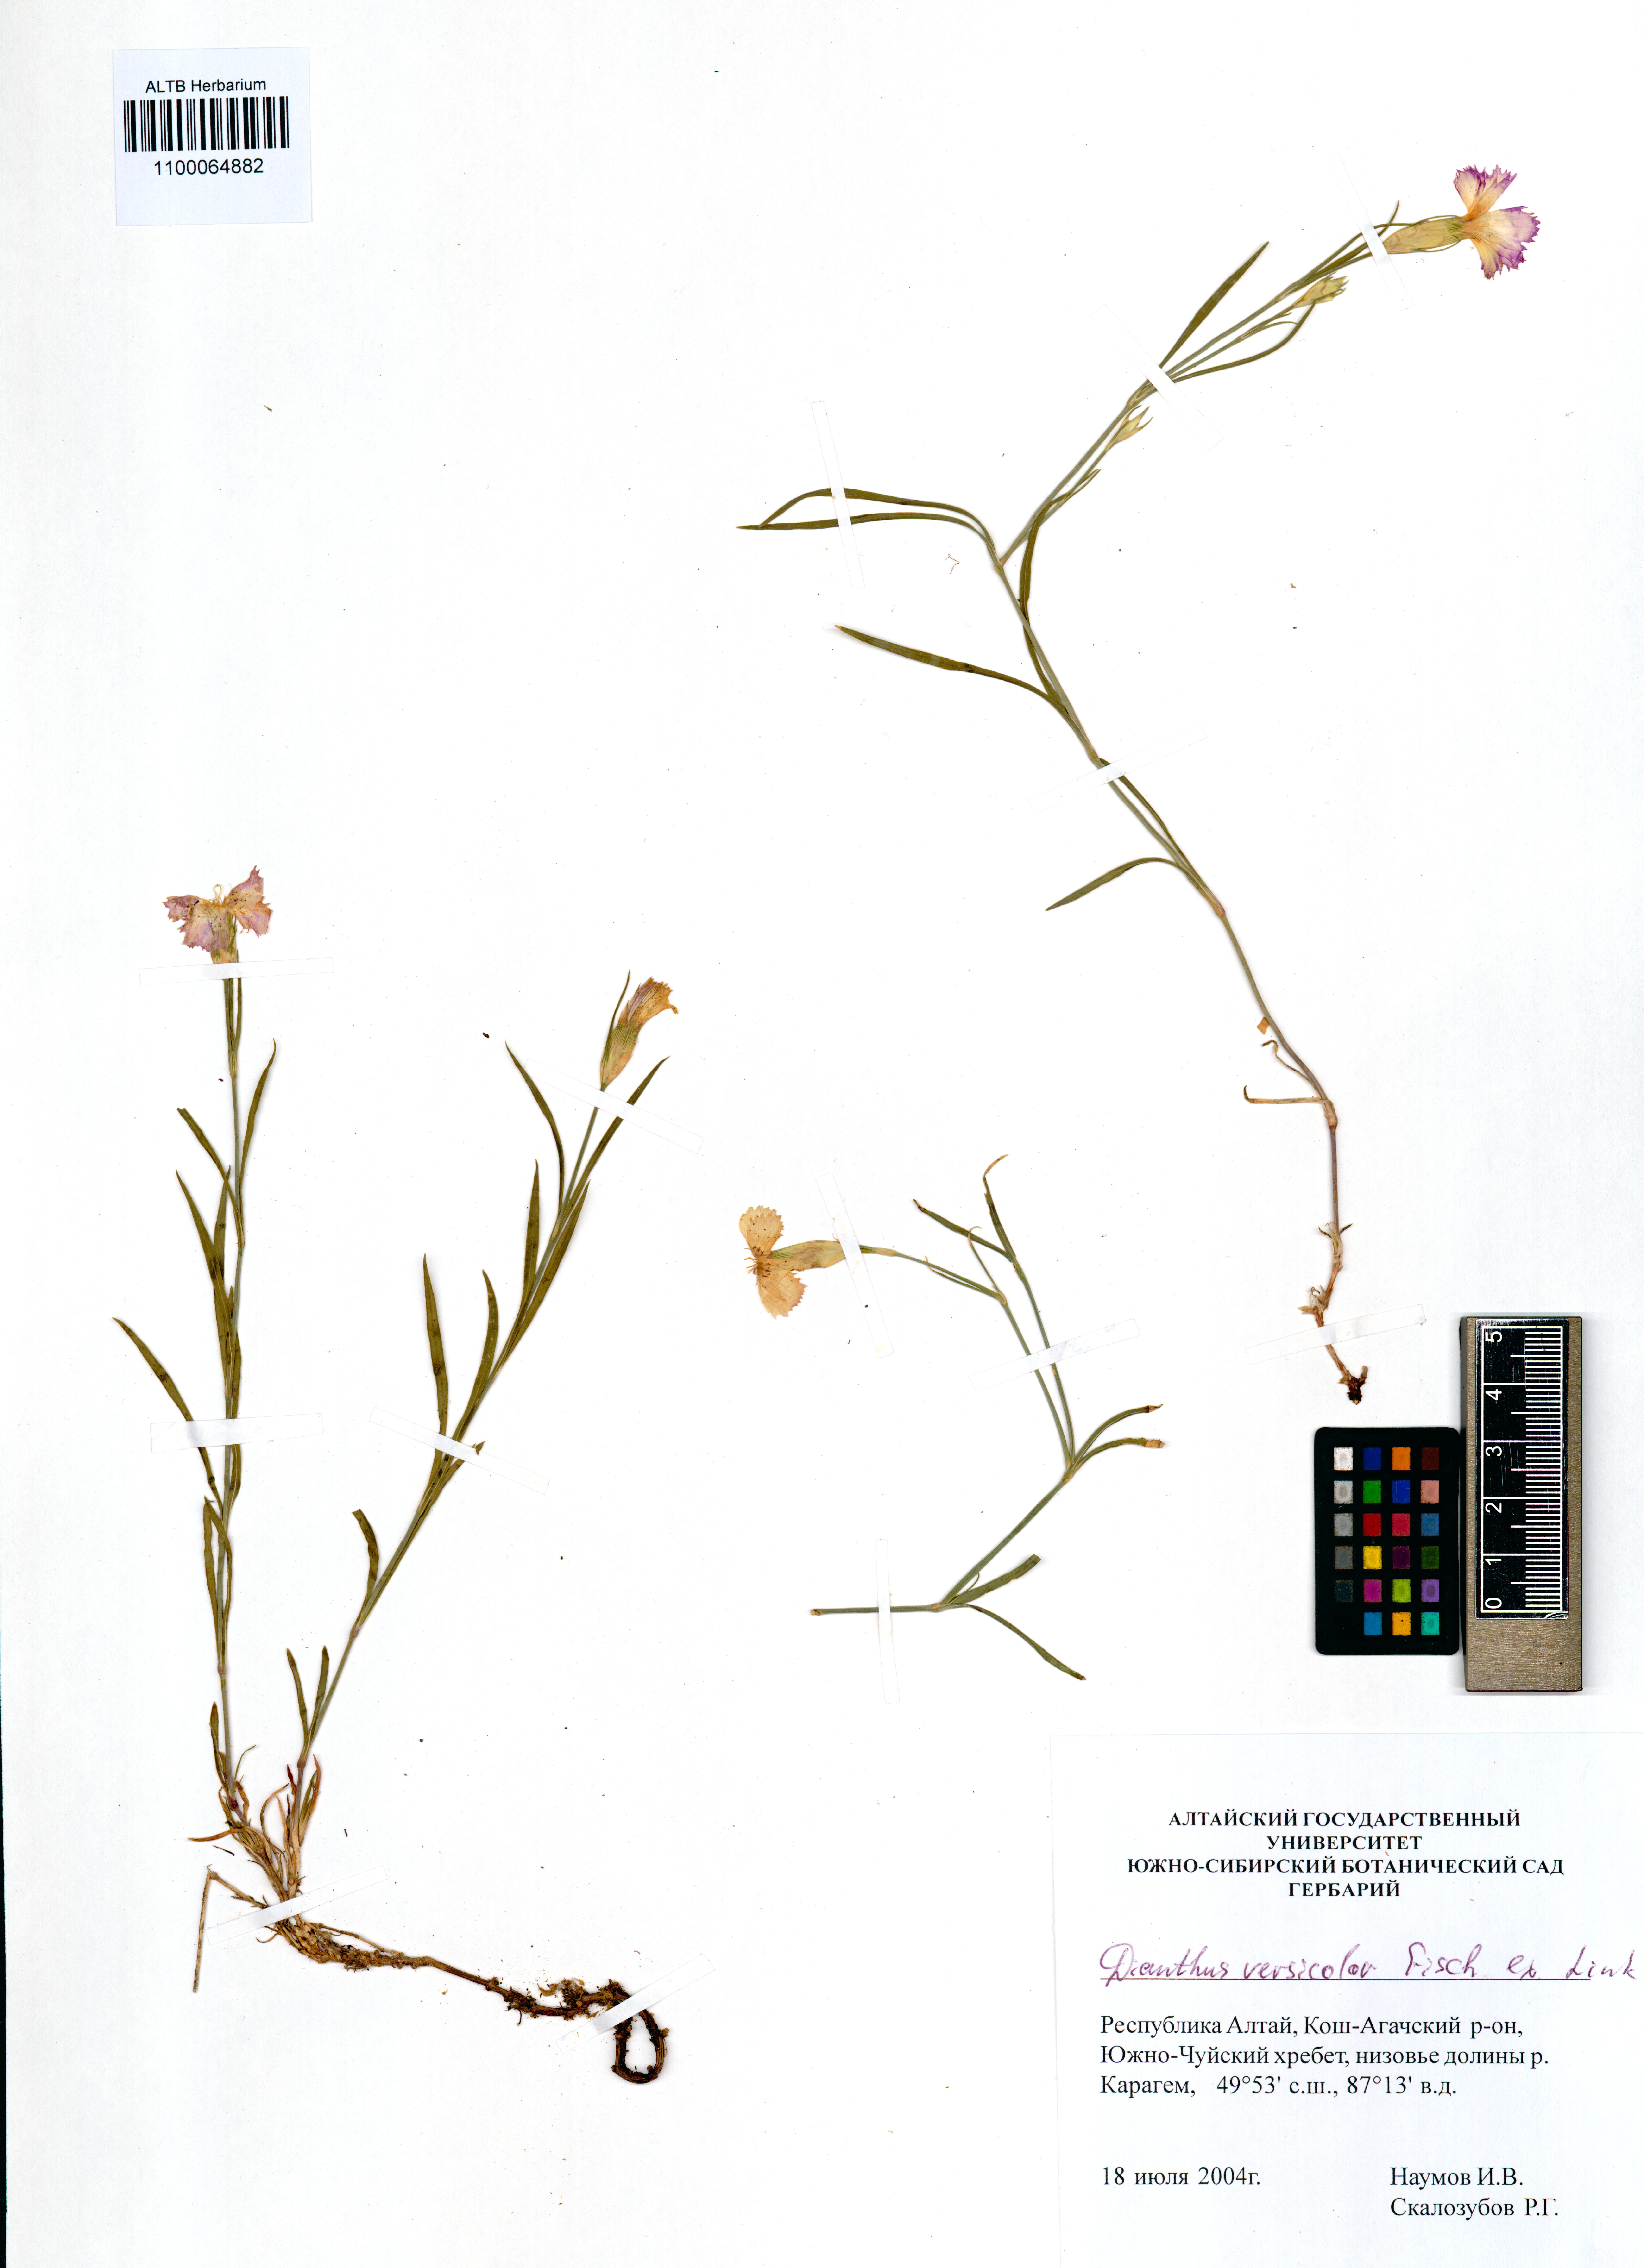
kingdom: Plantae
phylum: Tracheophyta
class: Magnoliopsida
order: Caryophyllales
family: Caryophyllaceae
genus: Dianthus
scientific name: Dianthus chinensis
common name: Rainbow pink
